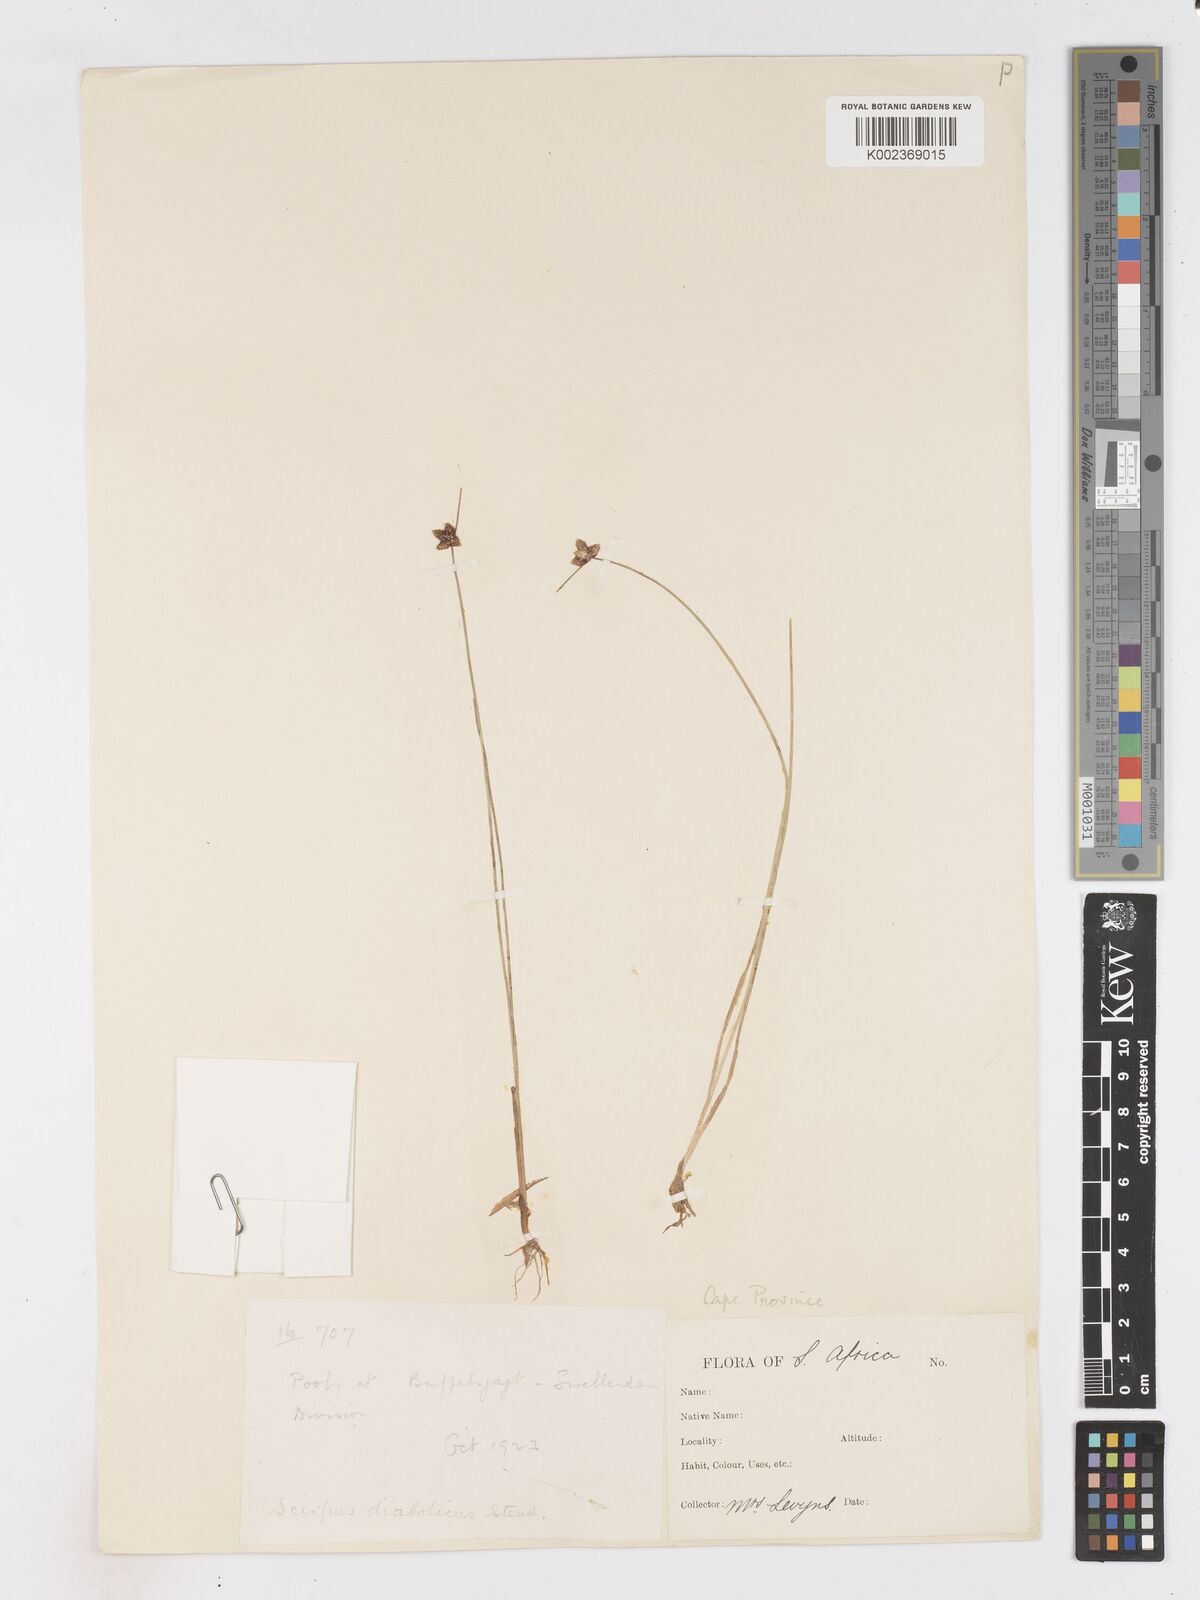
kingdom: Plantae
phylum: Tracheophyta
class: Liliopsida
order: Poales
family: Cyperaceae
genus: Isolepis
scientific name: Isolepis diabolica
